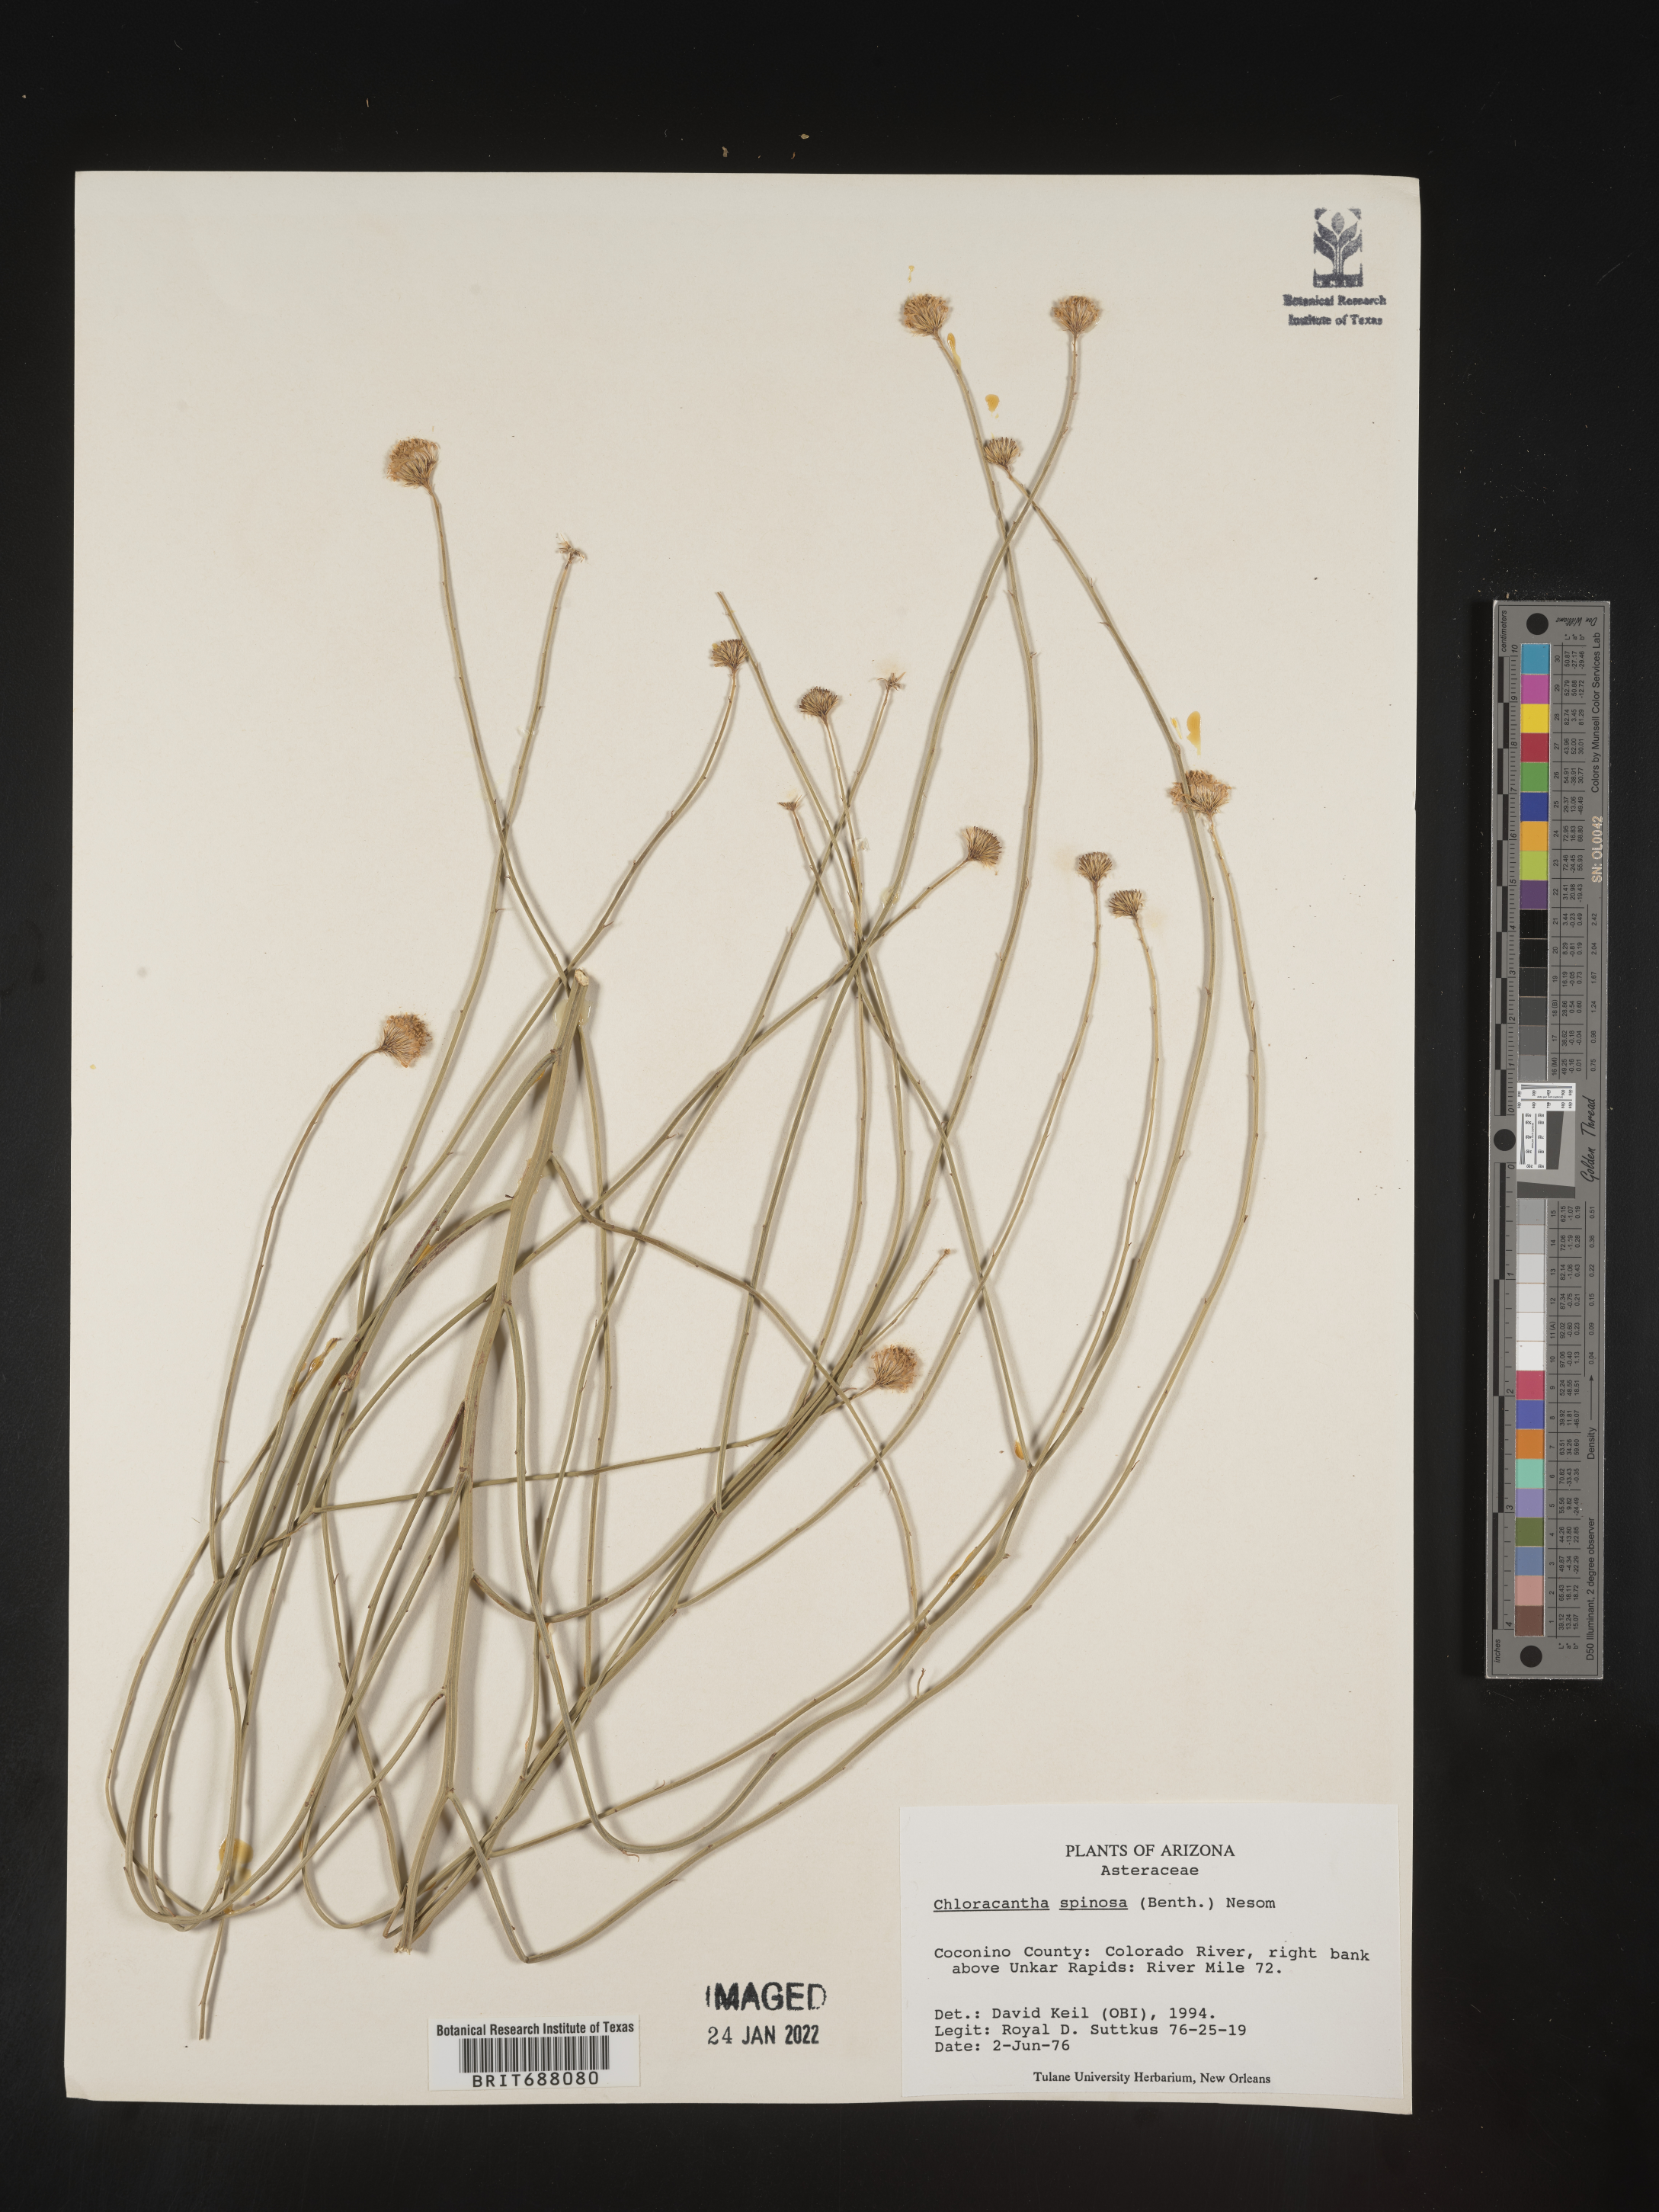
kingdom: Plantae
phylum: Tracheophyta
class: Magnoliopsida
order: Asterales
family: Asteraceae
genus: Chloracantha
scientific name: Chloracantha spinosa
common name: Mexican devilweed
